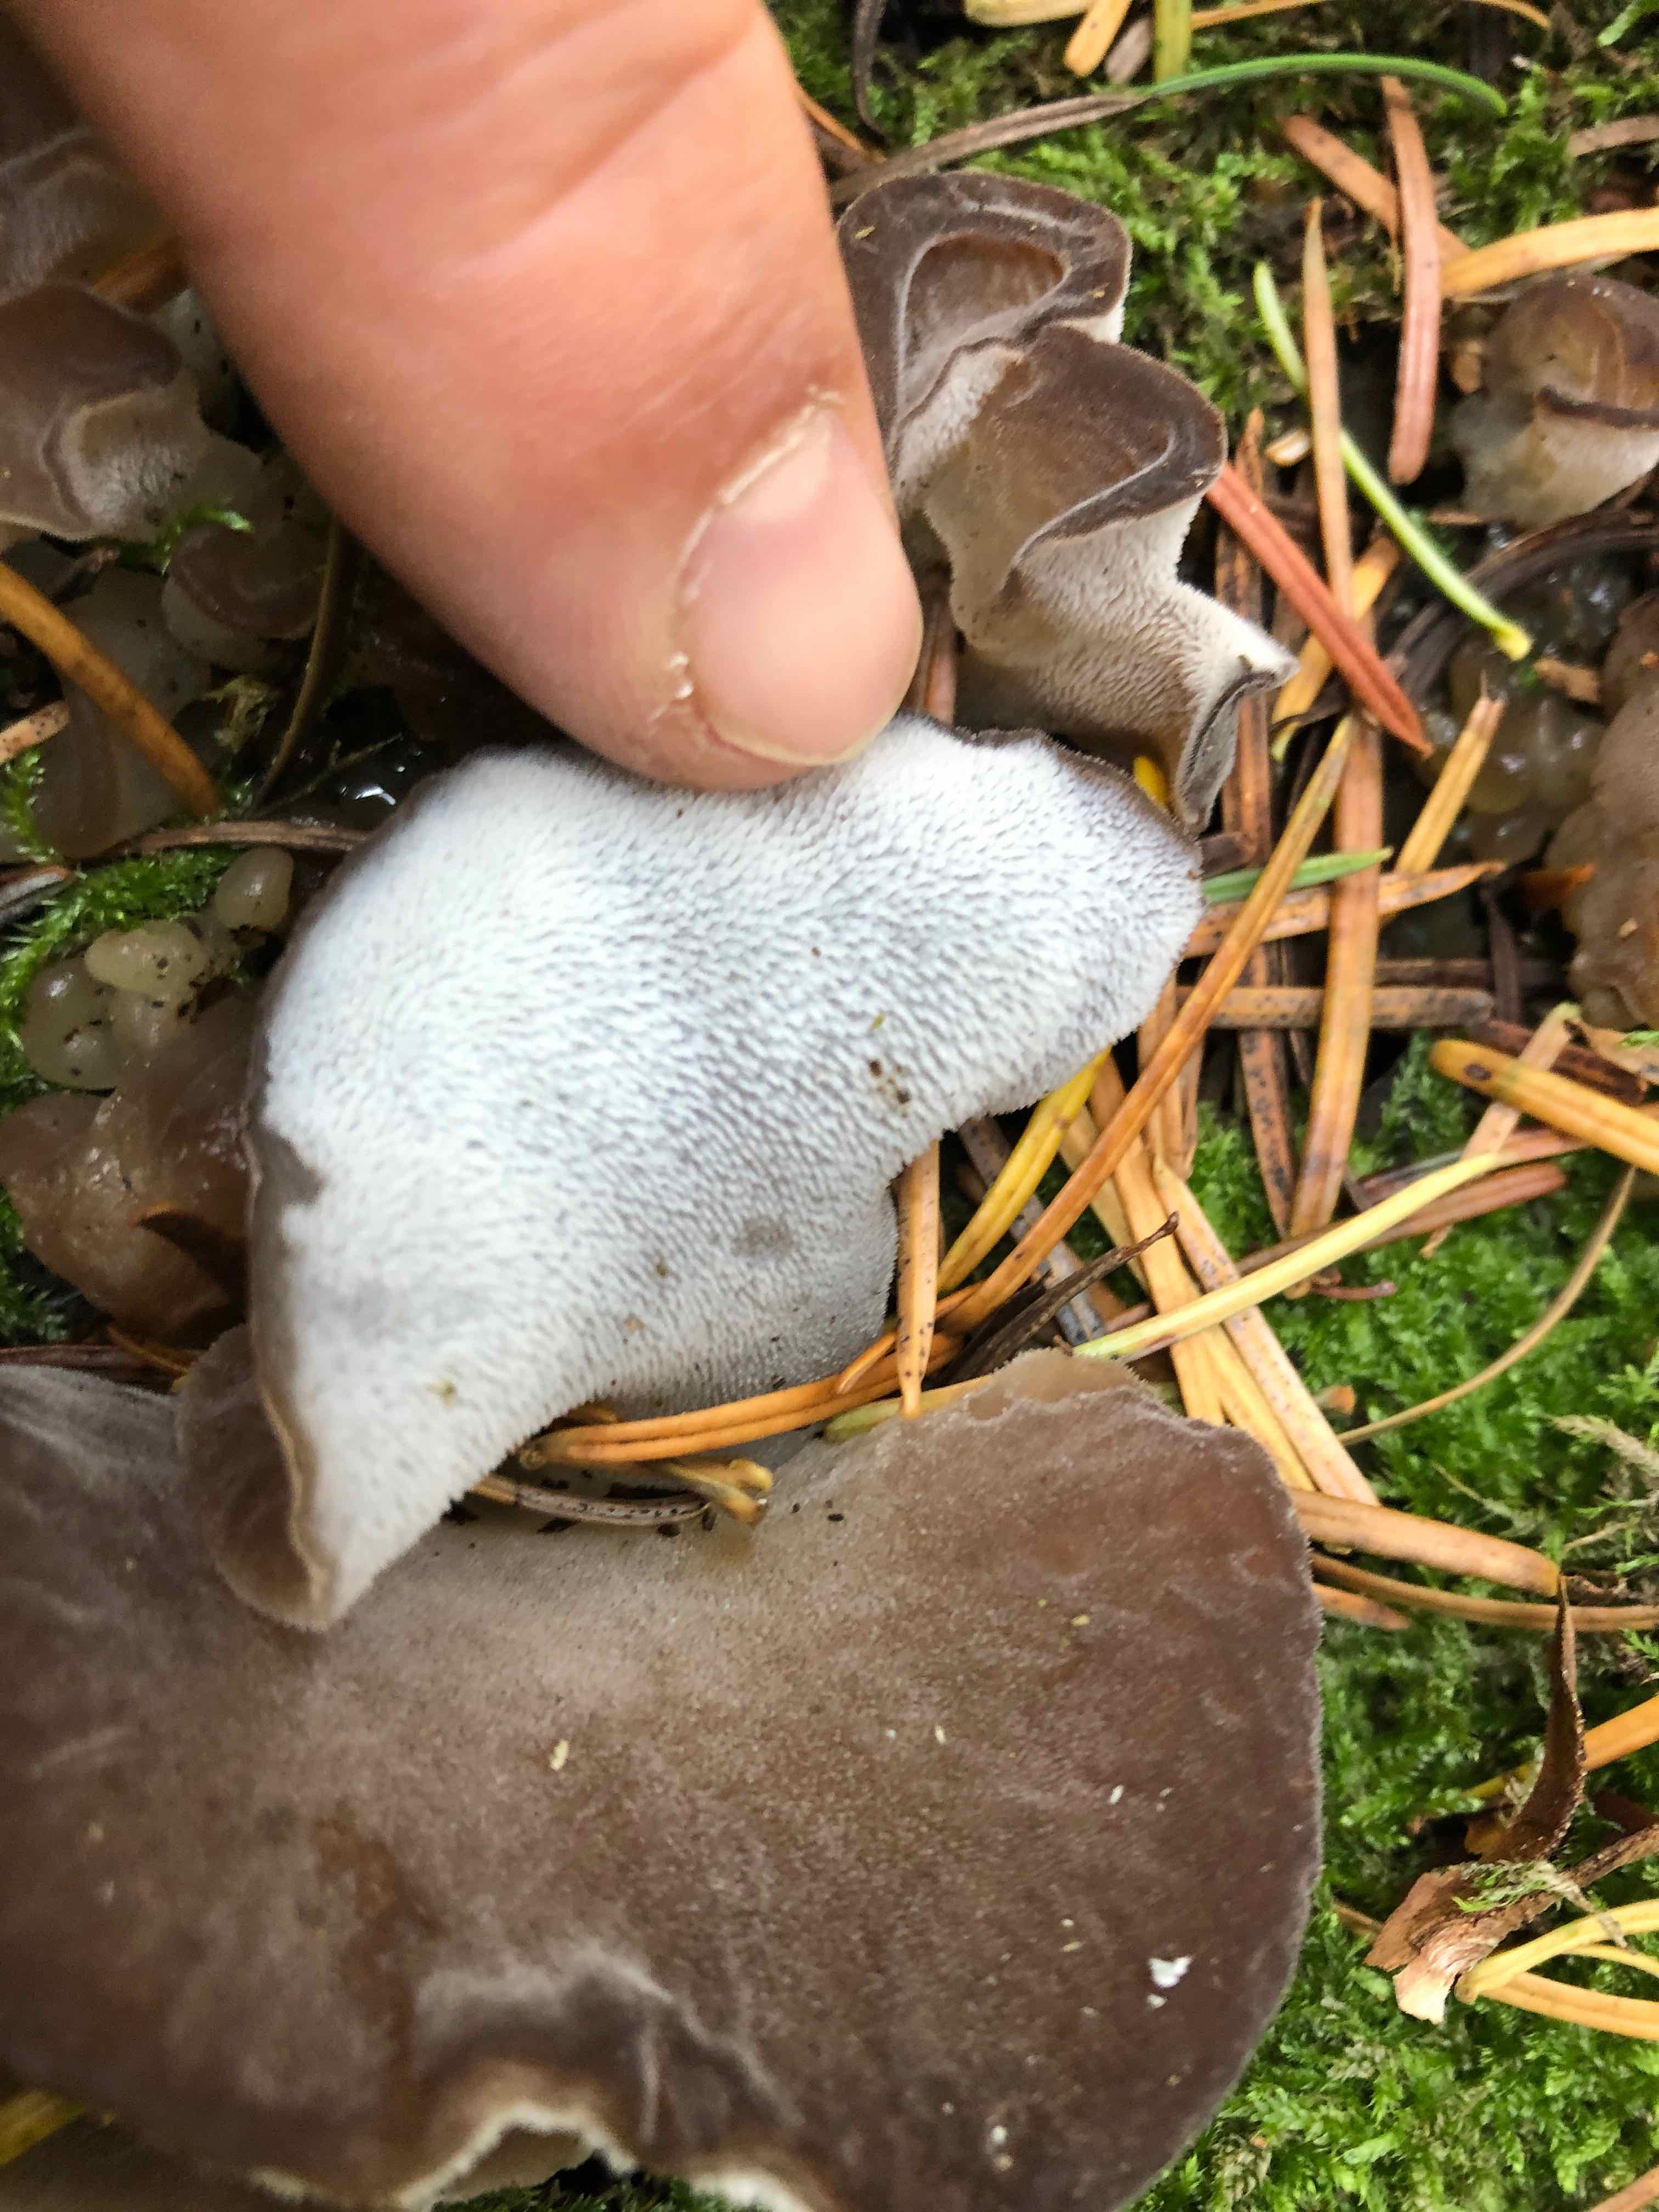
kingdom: Fungi
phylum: Basidiomycota
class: Agaricomycetes
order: Auriculariales
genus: Pseudohydnum
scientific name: Pseudohydnum gelatinosum
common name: bævretand
